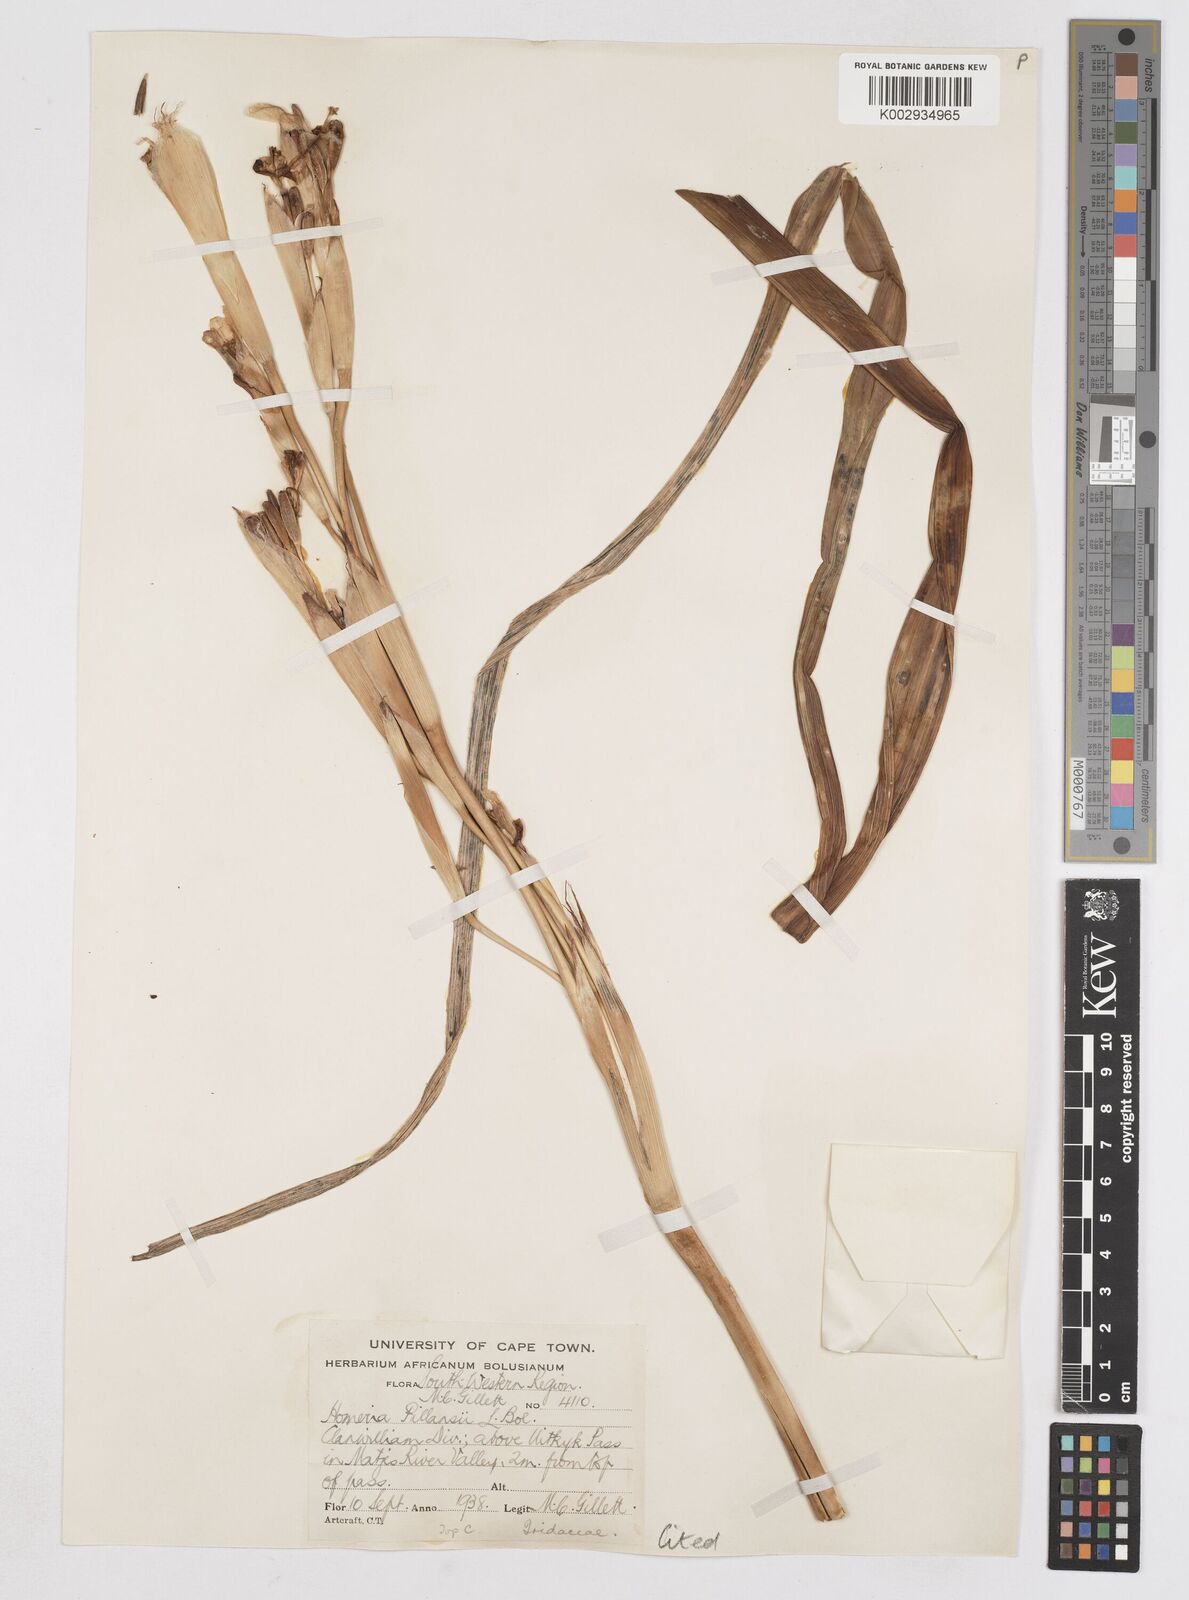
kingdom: Plantae
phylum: Tracheophyta
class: Liliopsida
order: Asparagales
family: Iridaceae
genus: Moraea
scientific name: Moraea cookii
